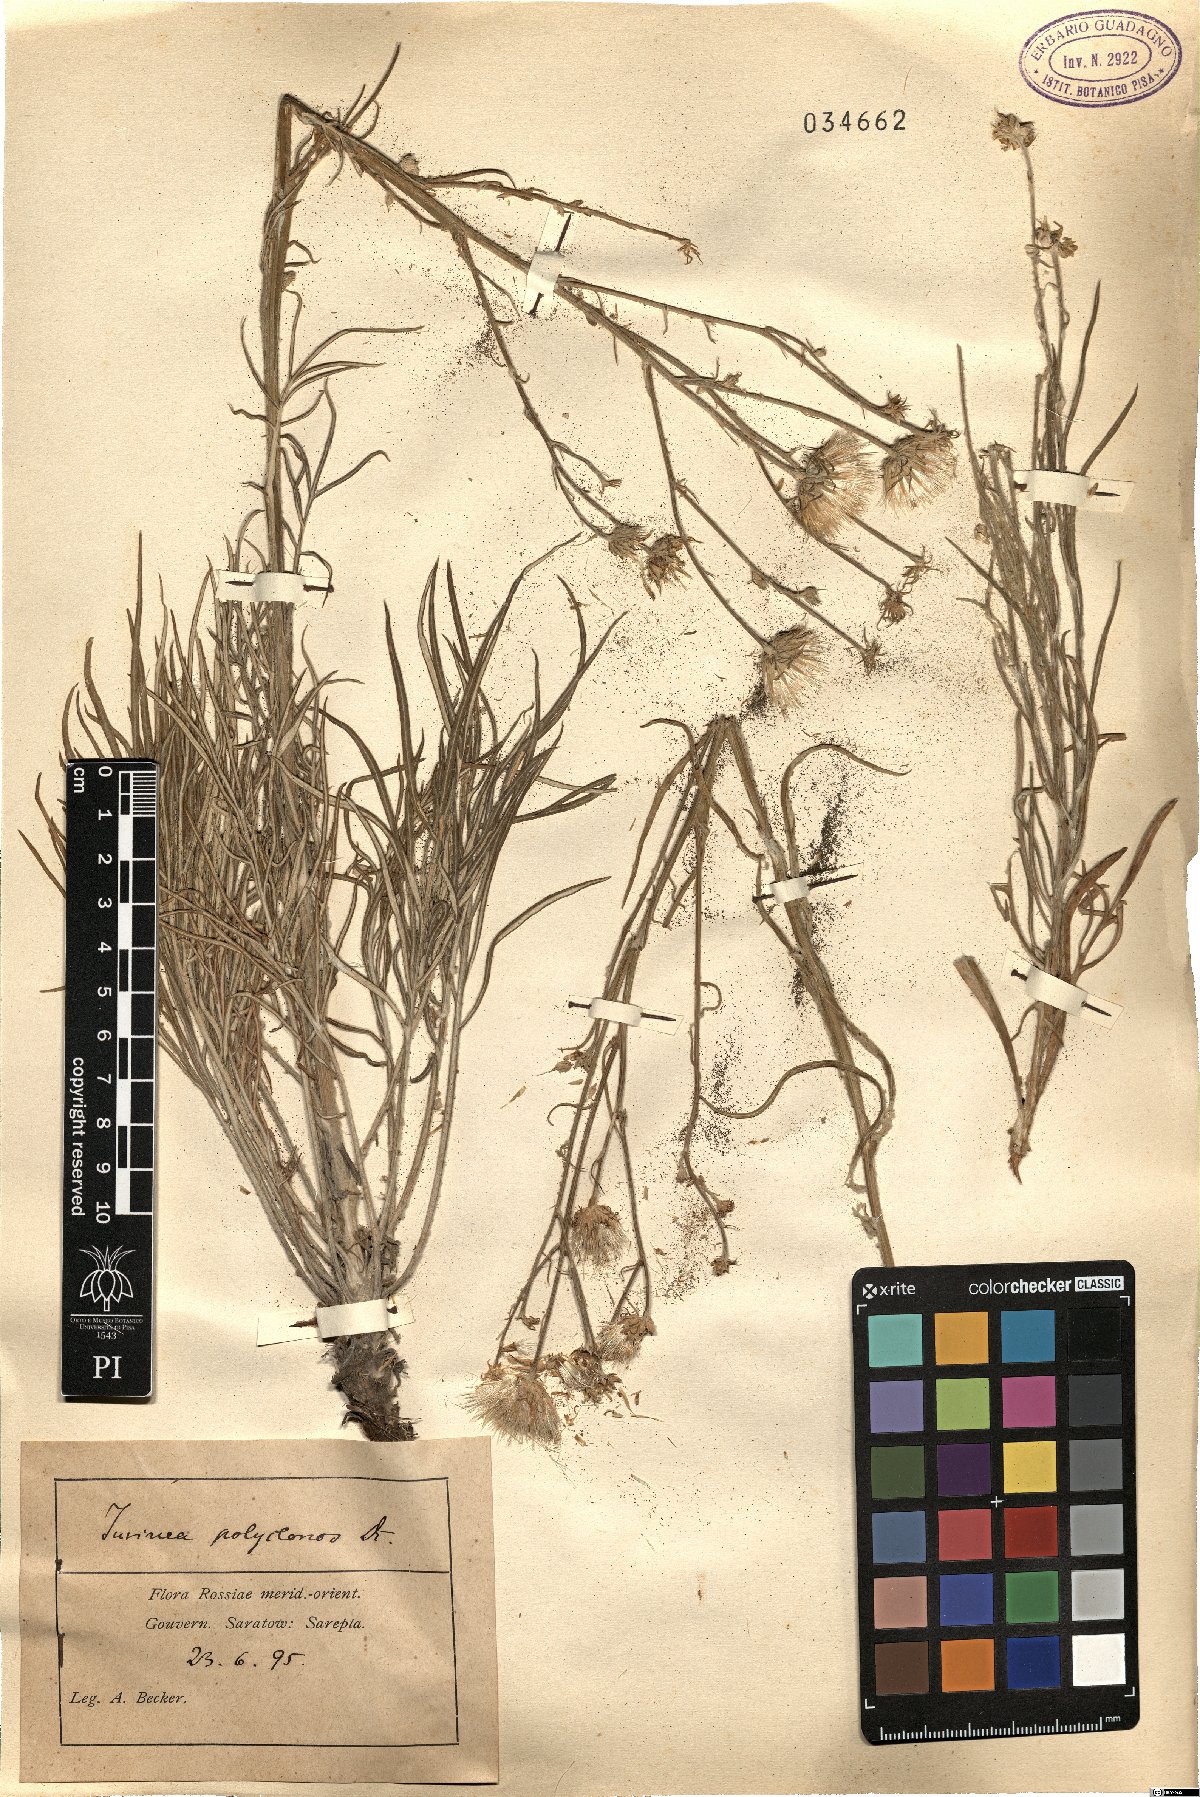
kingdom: Plantae
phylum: Tracheophyta
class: Magnoliopsida
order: Asterales
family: Asteraceae
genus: Jurinea
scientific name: Jurinea polyclonos
